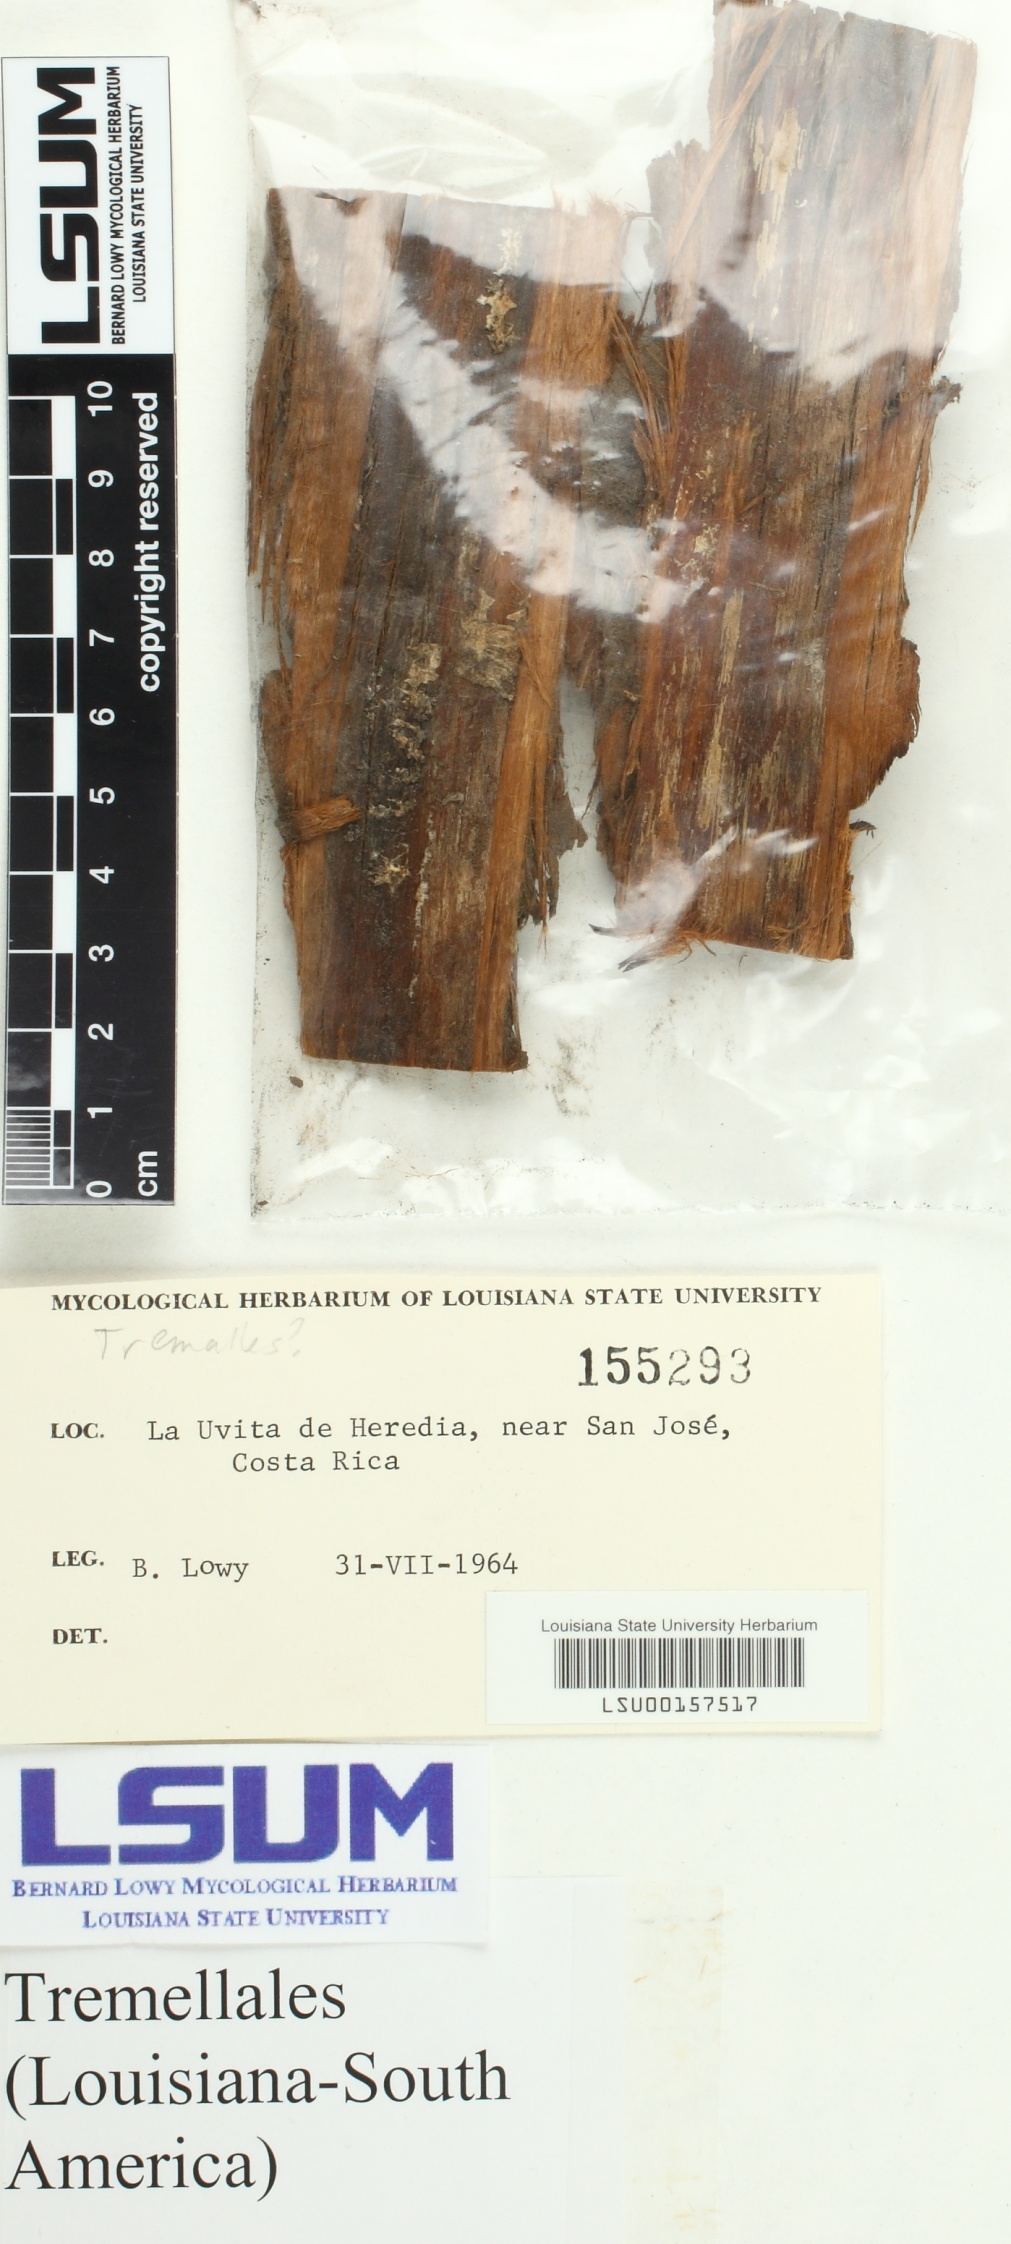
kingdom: Fungi
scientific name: Fungi
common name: Fungi
